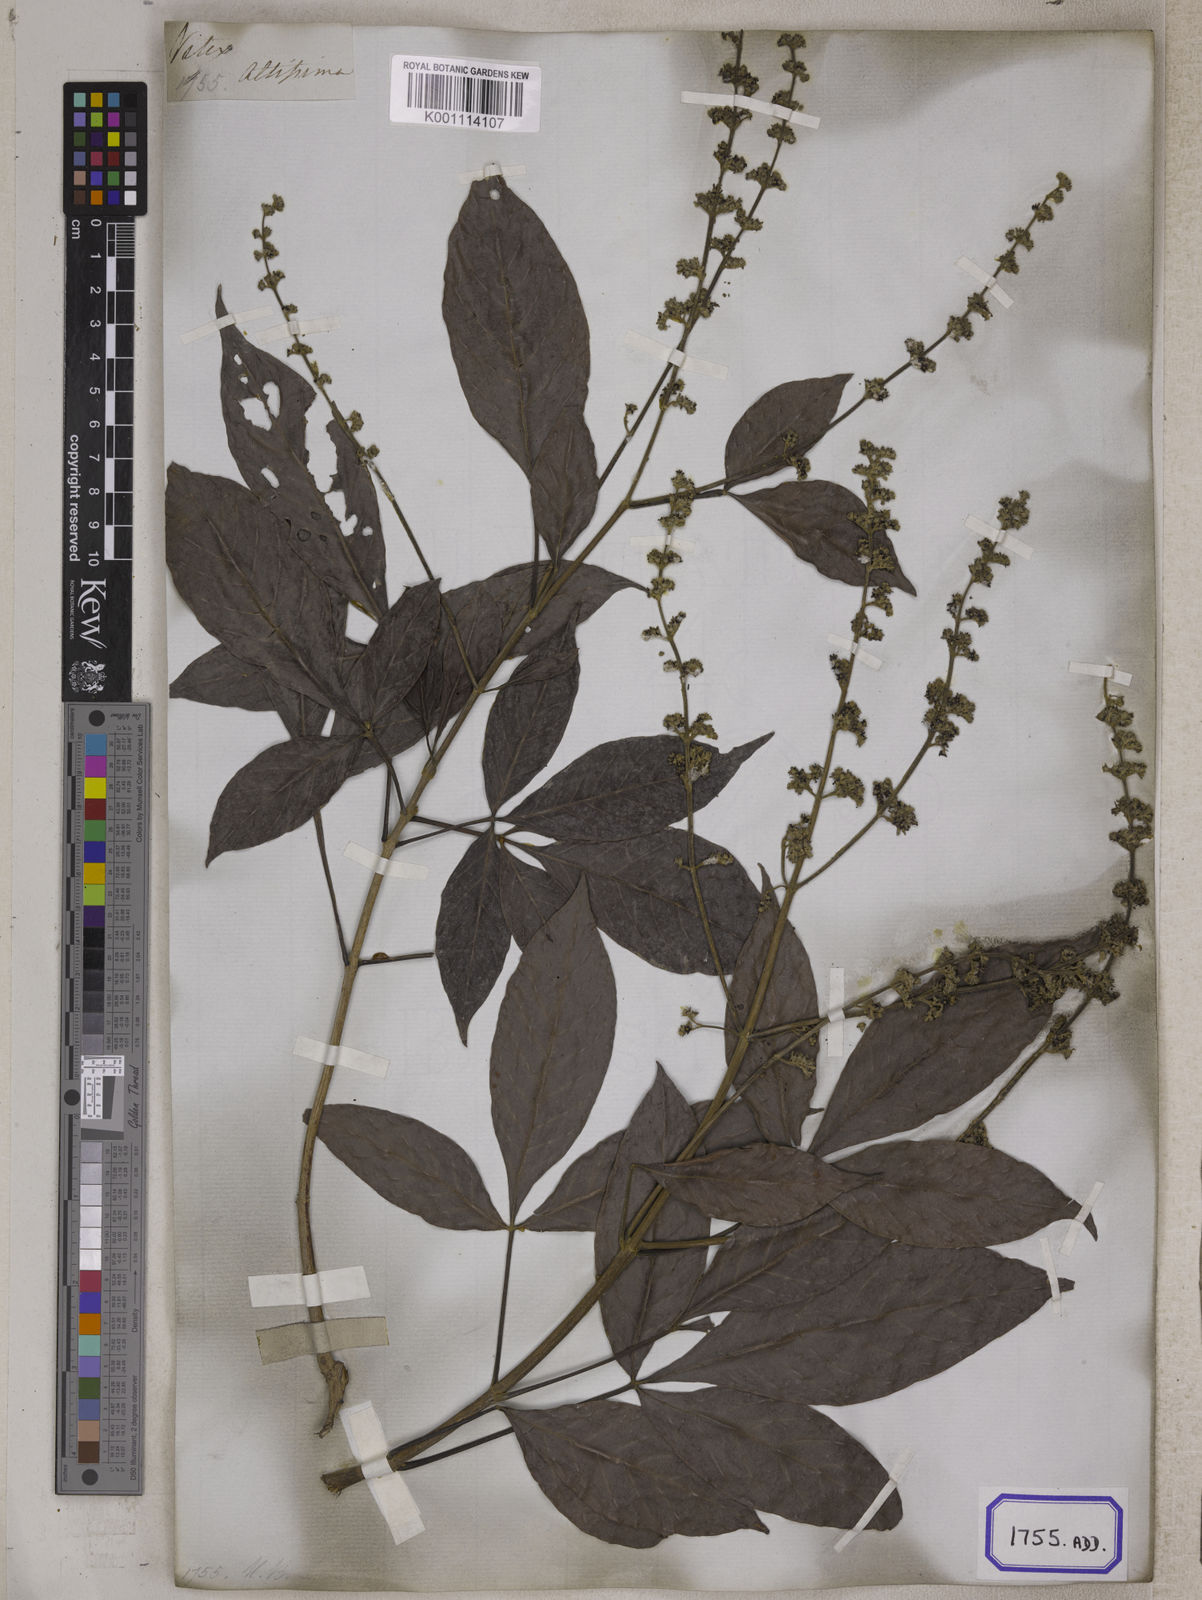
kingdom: Plantae
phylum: Tracheophyta
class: Magnoliopsida
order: Lamiales
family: Lamiaceae
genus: Vitex
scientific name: Vitex altissima
